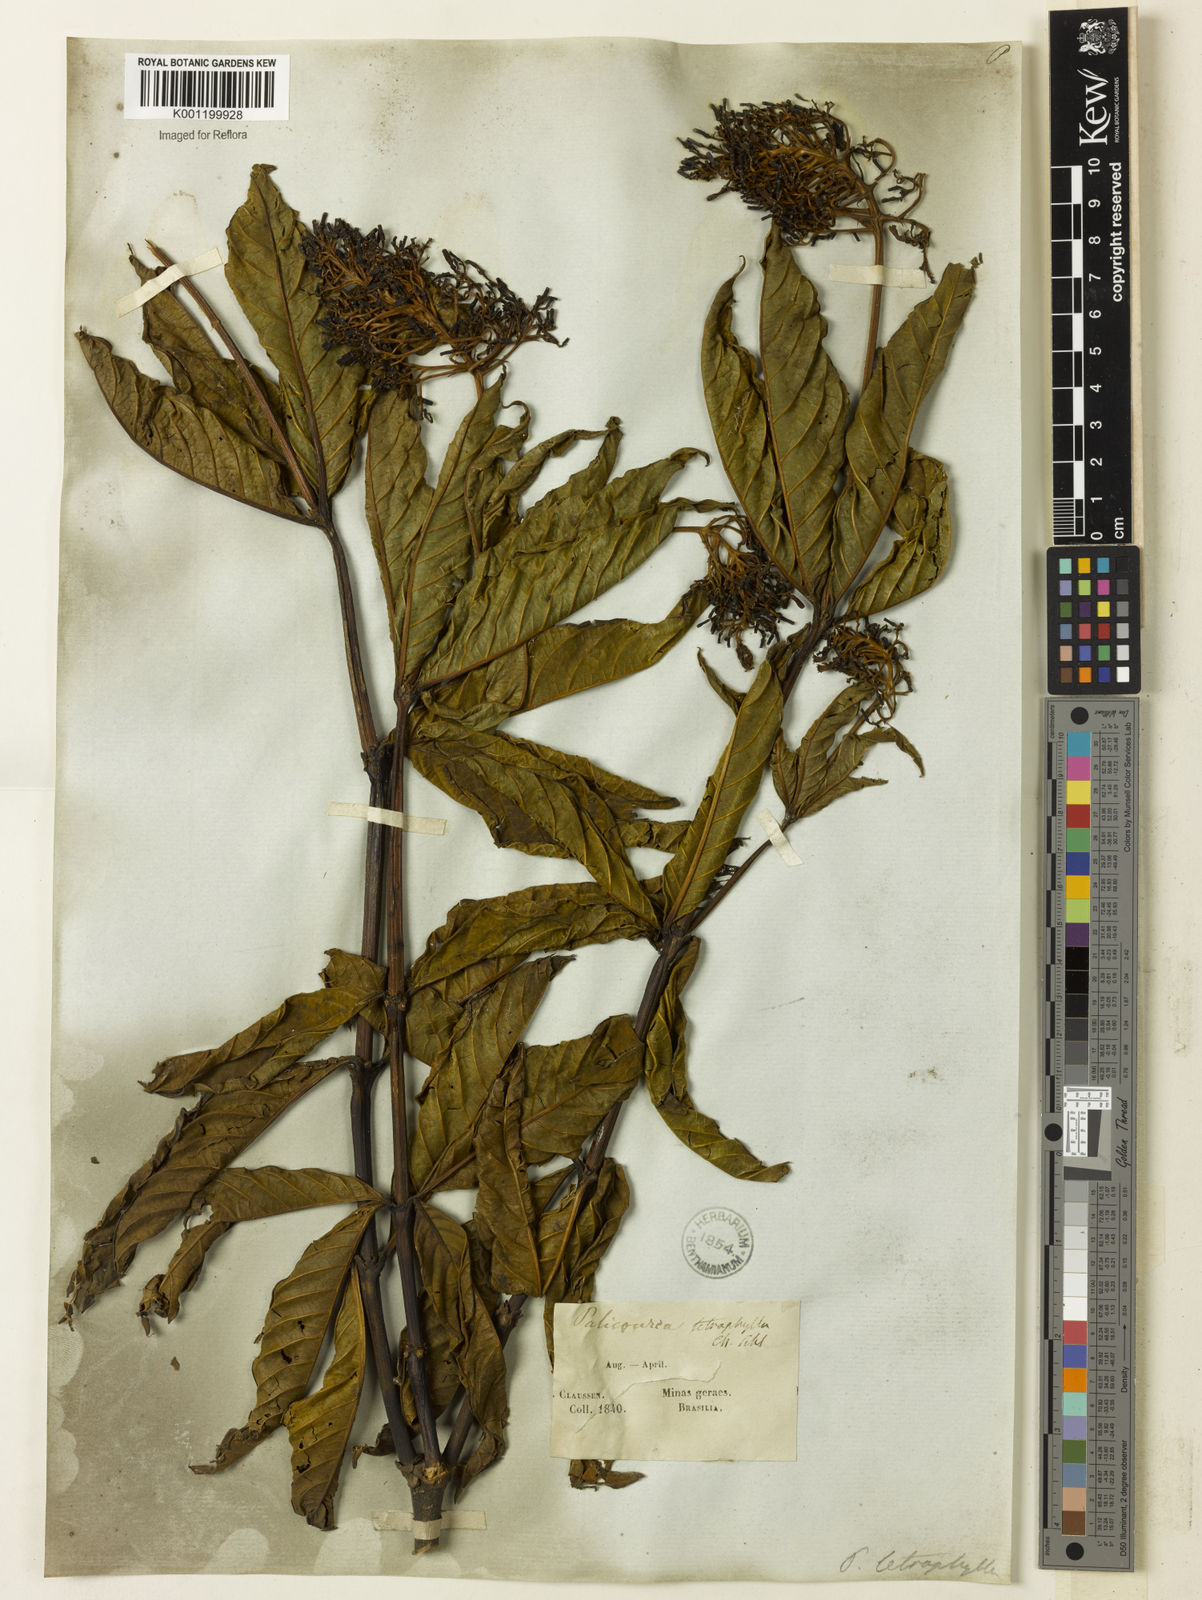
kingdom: Plantae
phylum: Tracheophyta
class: Magnoliopsida
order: Gentianales
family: Rubiaceae
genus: Palicourea
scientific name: Palicourea tetraphylla
